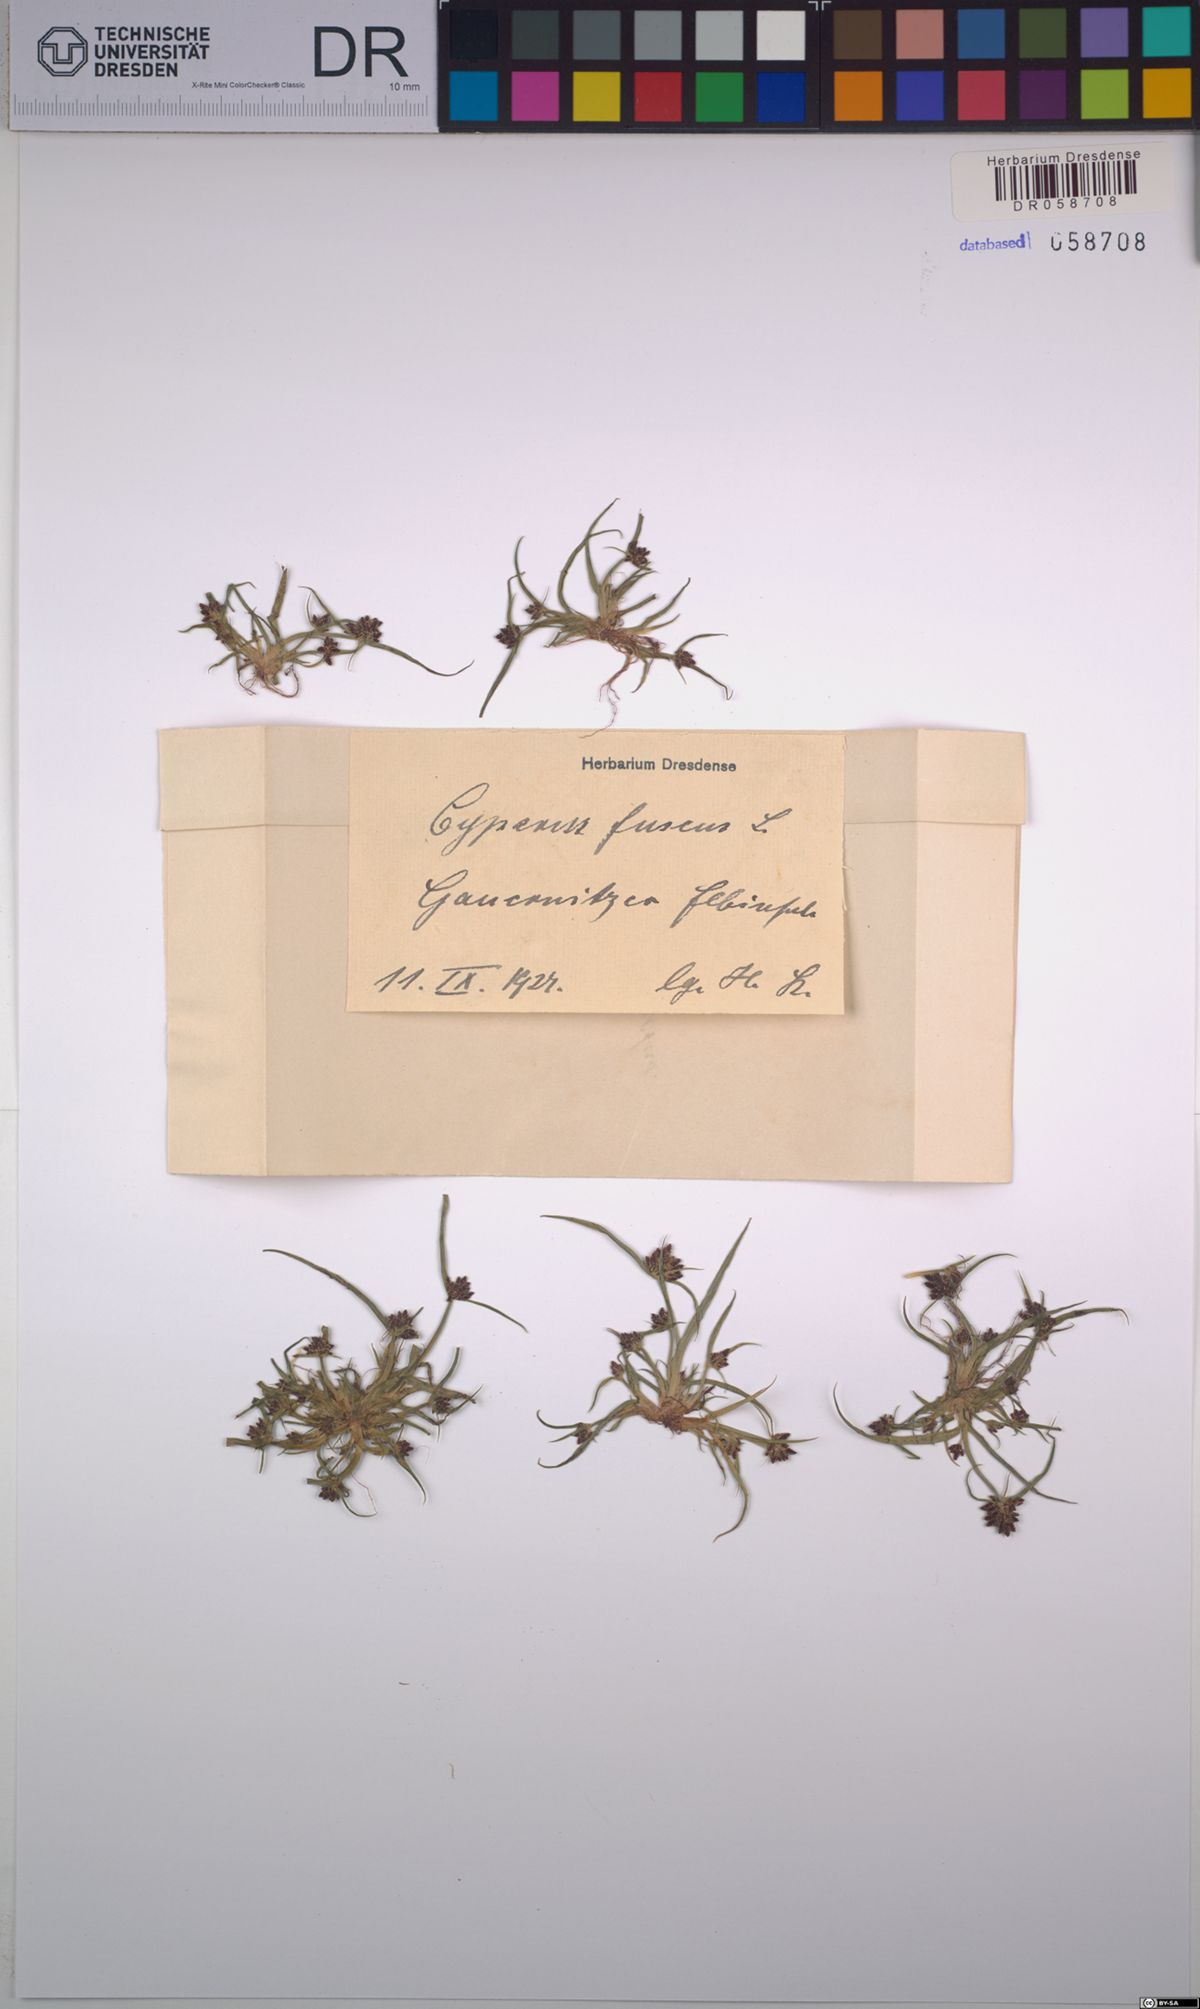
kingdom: Plantae
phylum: Tracheophyta
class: Liliopsida
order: Poales
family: Cyperaceae
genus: Cyperus
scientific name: Cyperus fuscus
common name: Brown galingale
